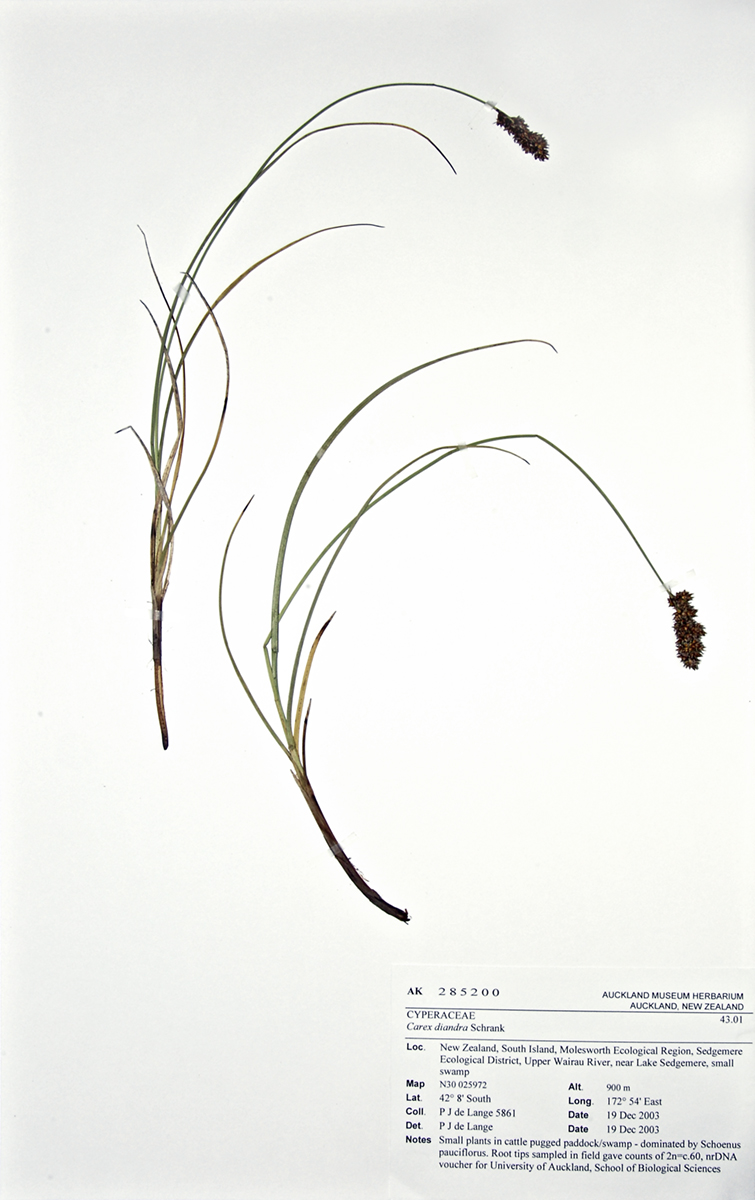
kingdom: Plantae
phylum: Tracheophyta
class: Liliopsida
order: Poales
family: Cyperaceae
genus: Carex
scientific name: Carex diandra
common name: Lesser tussock-sedge
